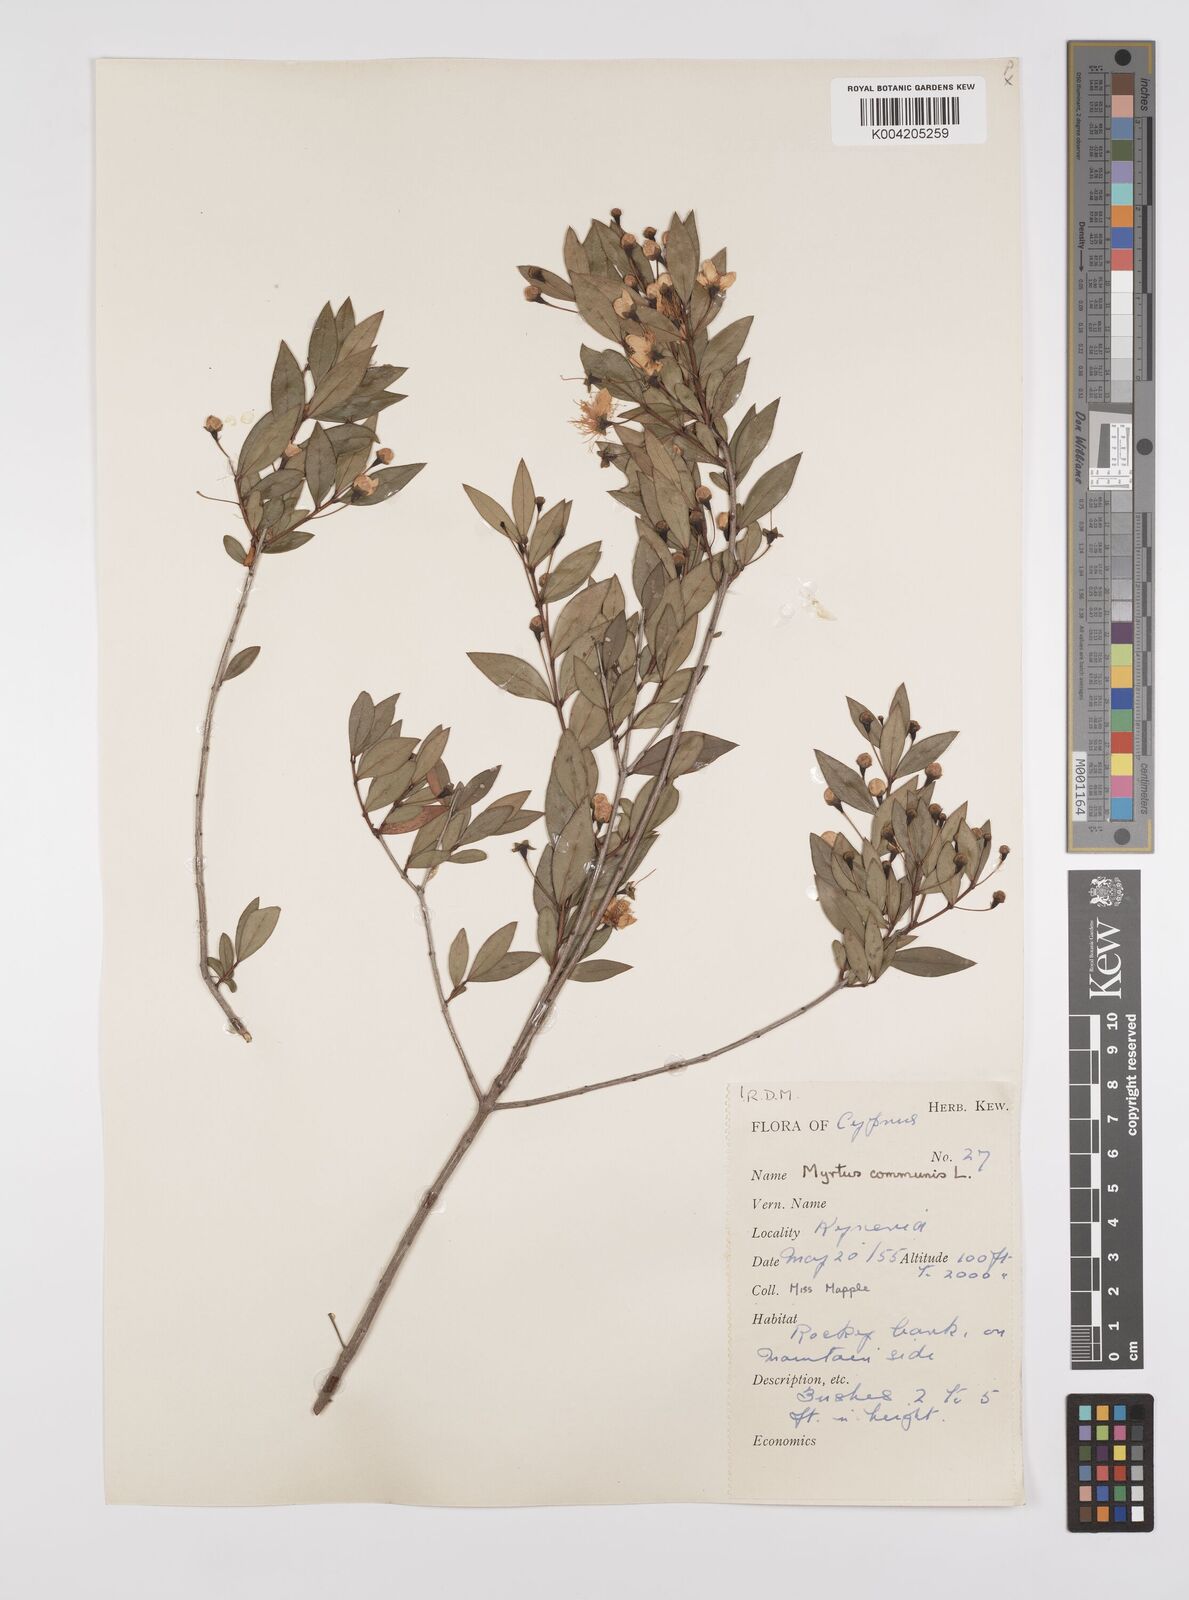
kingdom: Plantae
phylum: Tracheophyta
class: Magnoliopsida
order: Myrtales
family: Myrtaceae
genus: Myrtus
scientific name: Myrtus communis
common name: Myrtle
